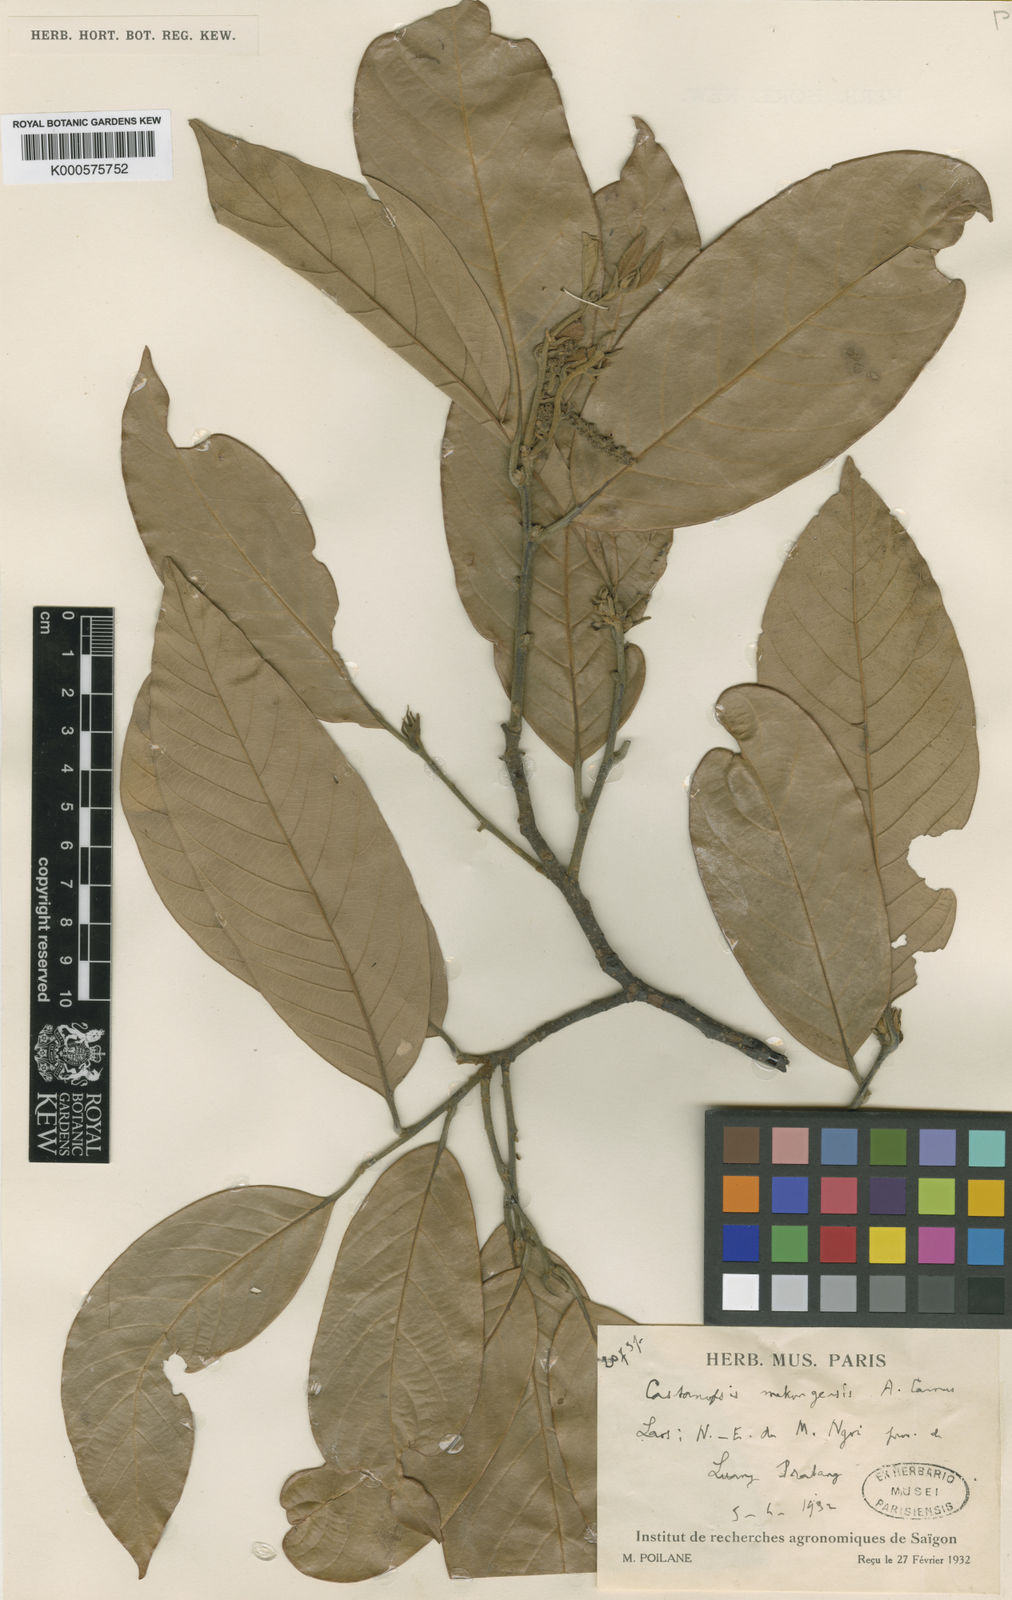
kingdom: Plantae
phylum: Tracheophyta
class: Magnoliopsida
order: Fagales
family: Fagaceae
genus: Castanopsis
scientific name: Castanopsis mekongensis
